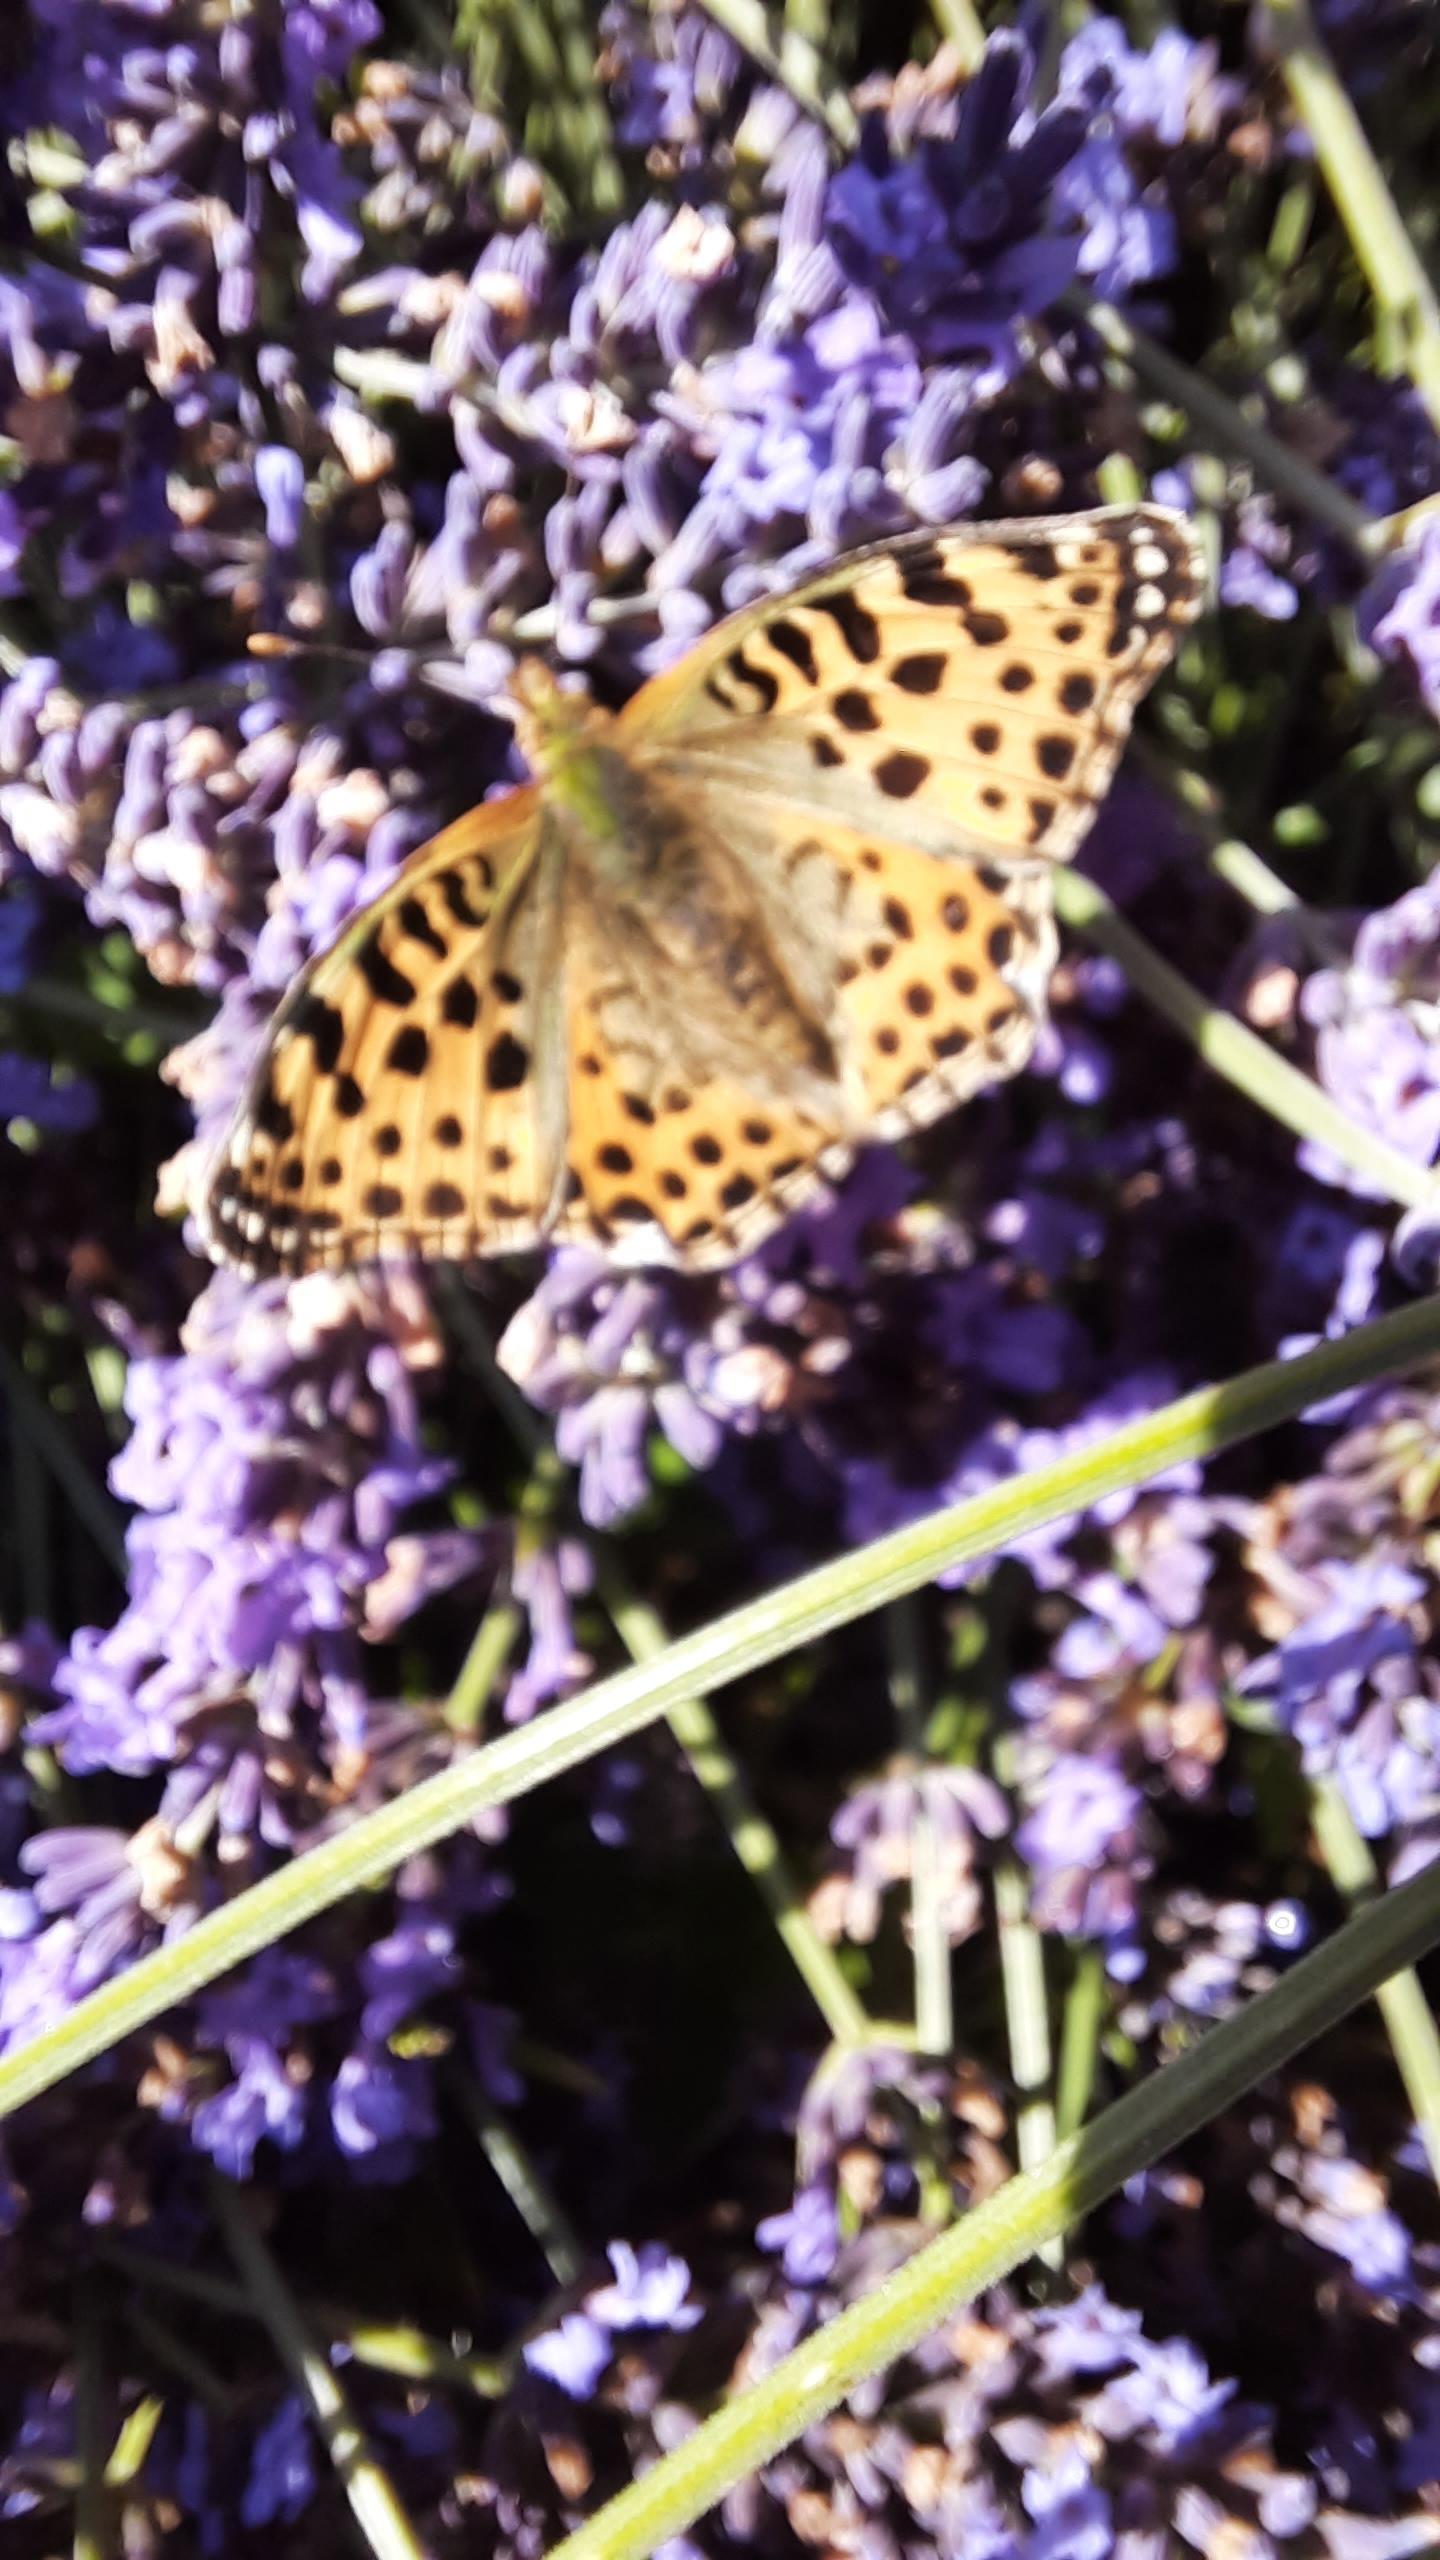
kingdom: Animalia
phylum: Arthropoda
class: Insecta
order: Lepidoptera
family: Nymphalidae
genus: Issoria
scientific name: Issoria lathonia
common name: Storplettet perlemorsommerfugl
